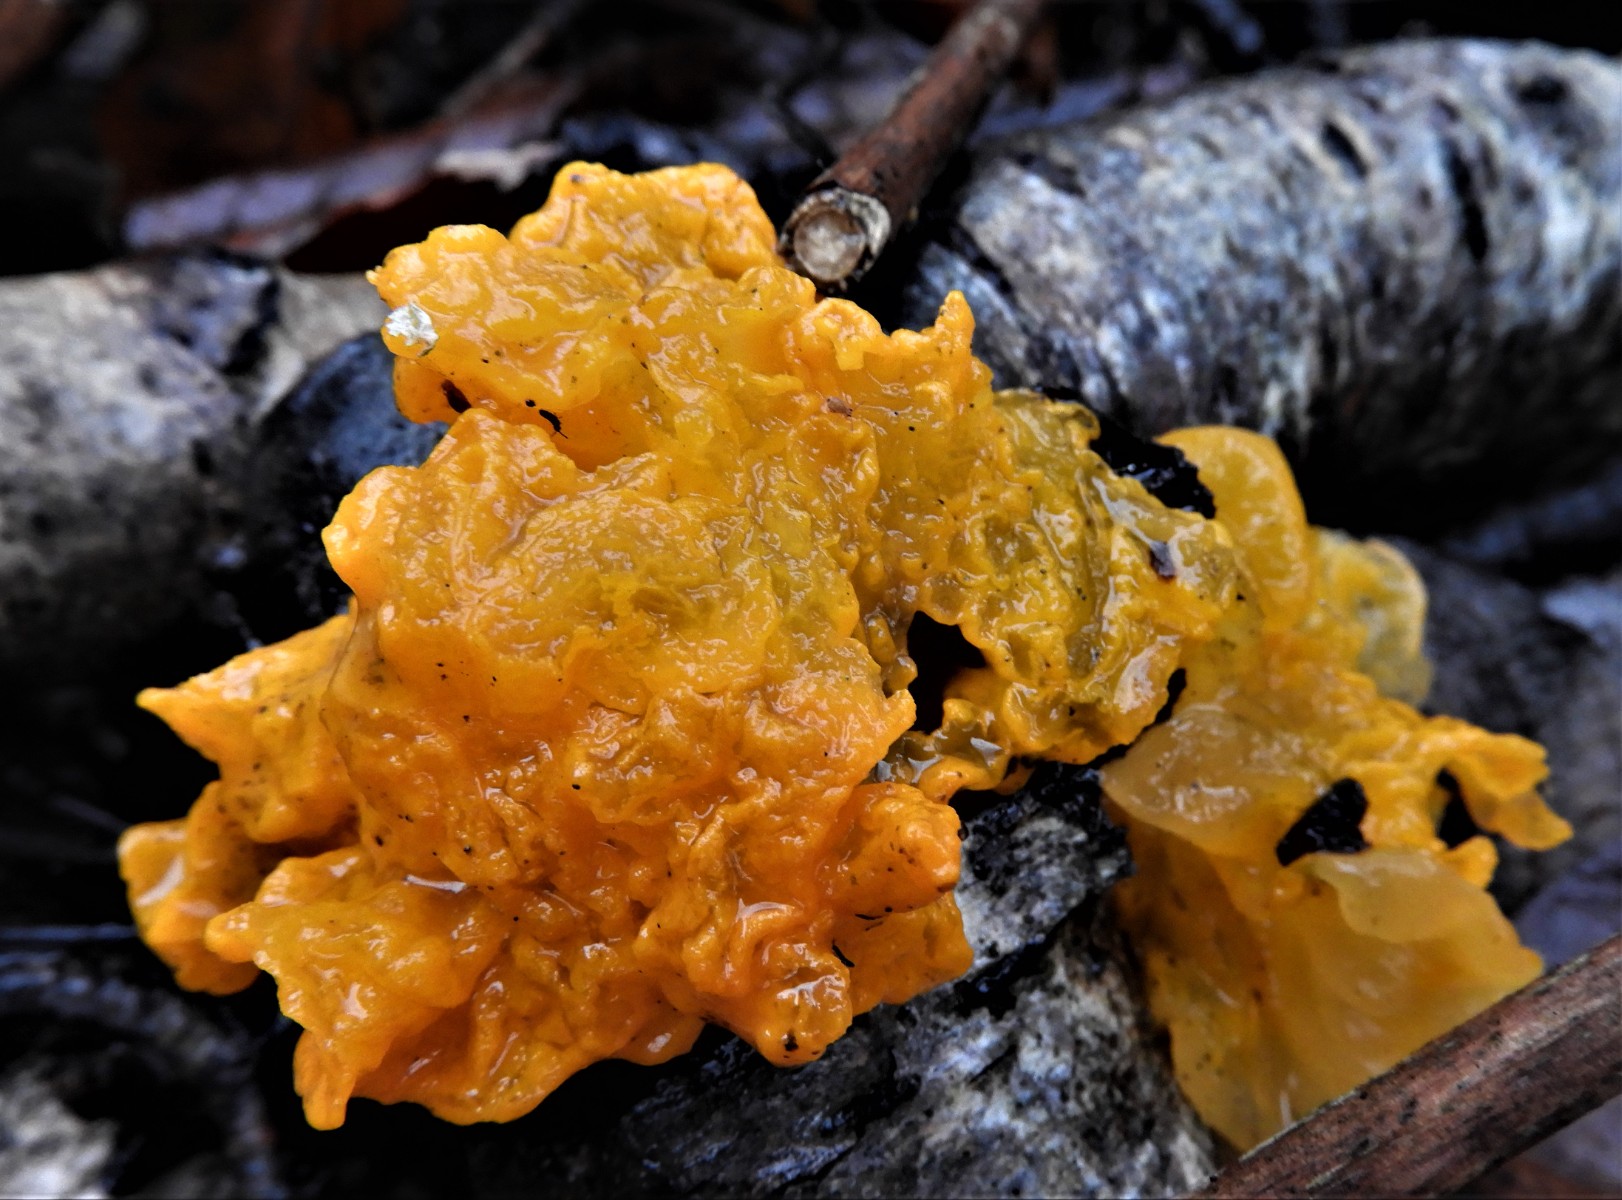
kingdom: Fungi
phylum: Basidiomycota
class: Tremellomycetes
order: Tremellales
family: Tremellaceae
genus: Tremella
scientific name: Tremella mesenterica
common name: gul bævresvamp
